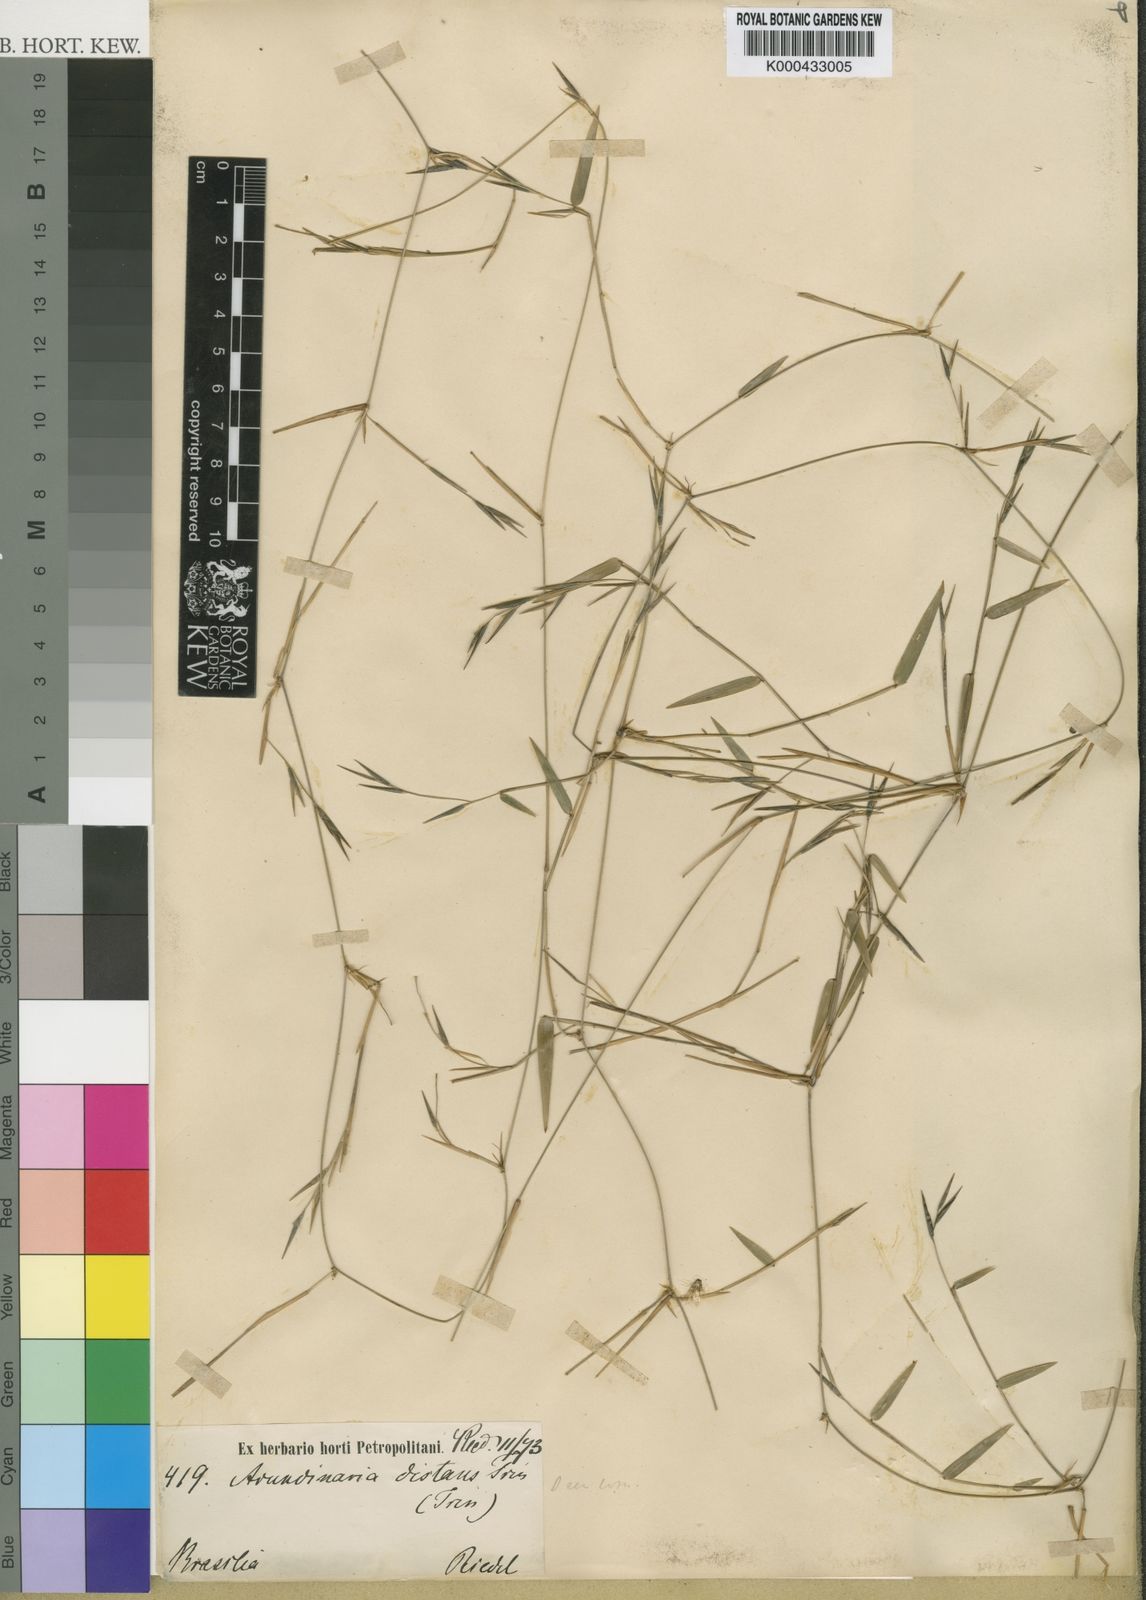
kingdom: Plantae
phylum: Tracheophyta
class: Liliopsida
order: Poales
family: Poaceae
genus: Colanthelia
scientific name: Colanthelia distans
